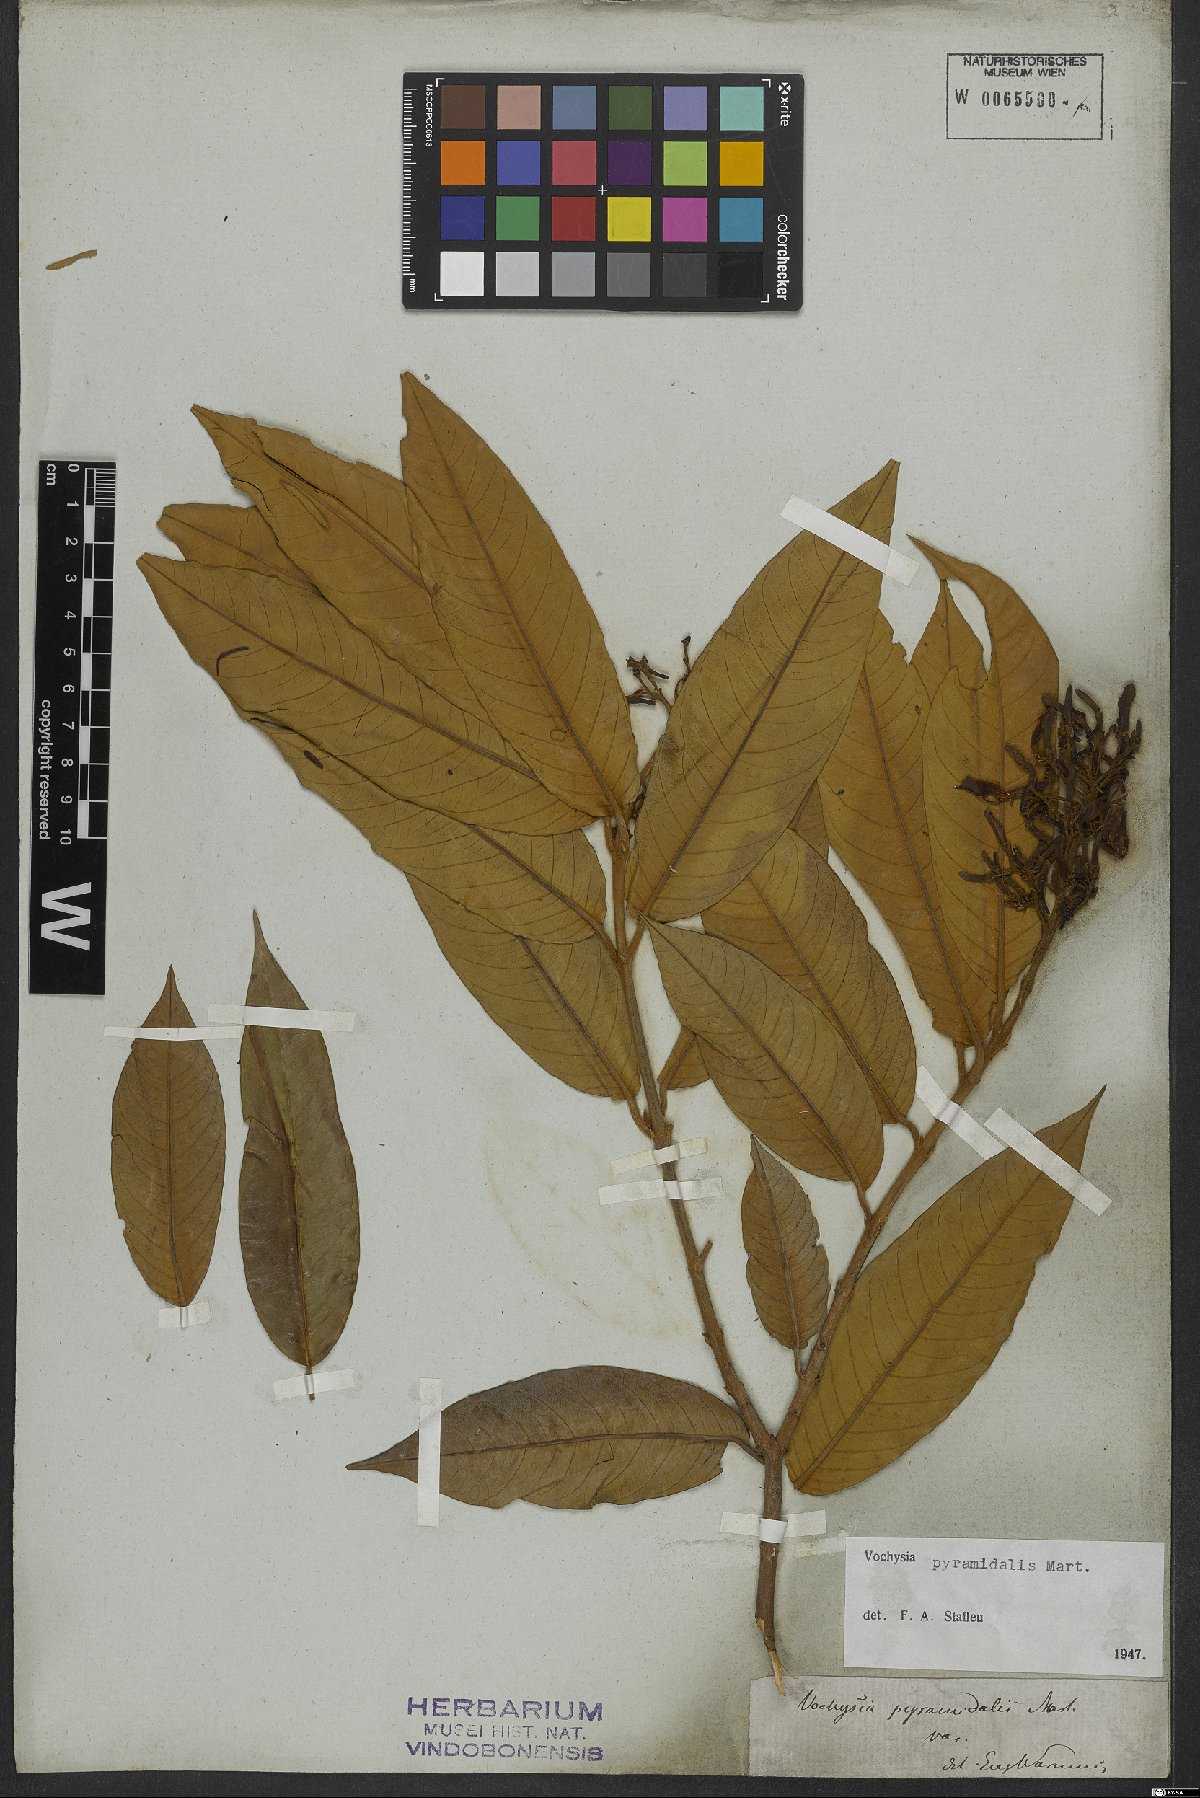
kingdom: Plantae
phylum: Tracheophyta
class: Magnoliopsida
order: Myrtales
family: Vochysiaceae
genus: Vochysia
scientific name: Vochysia pyramidalis
